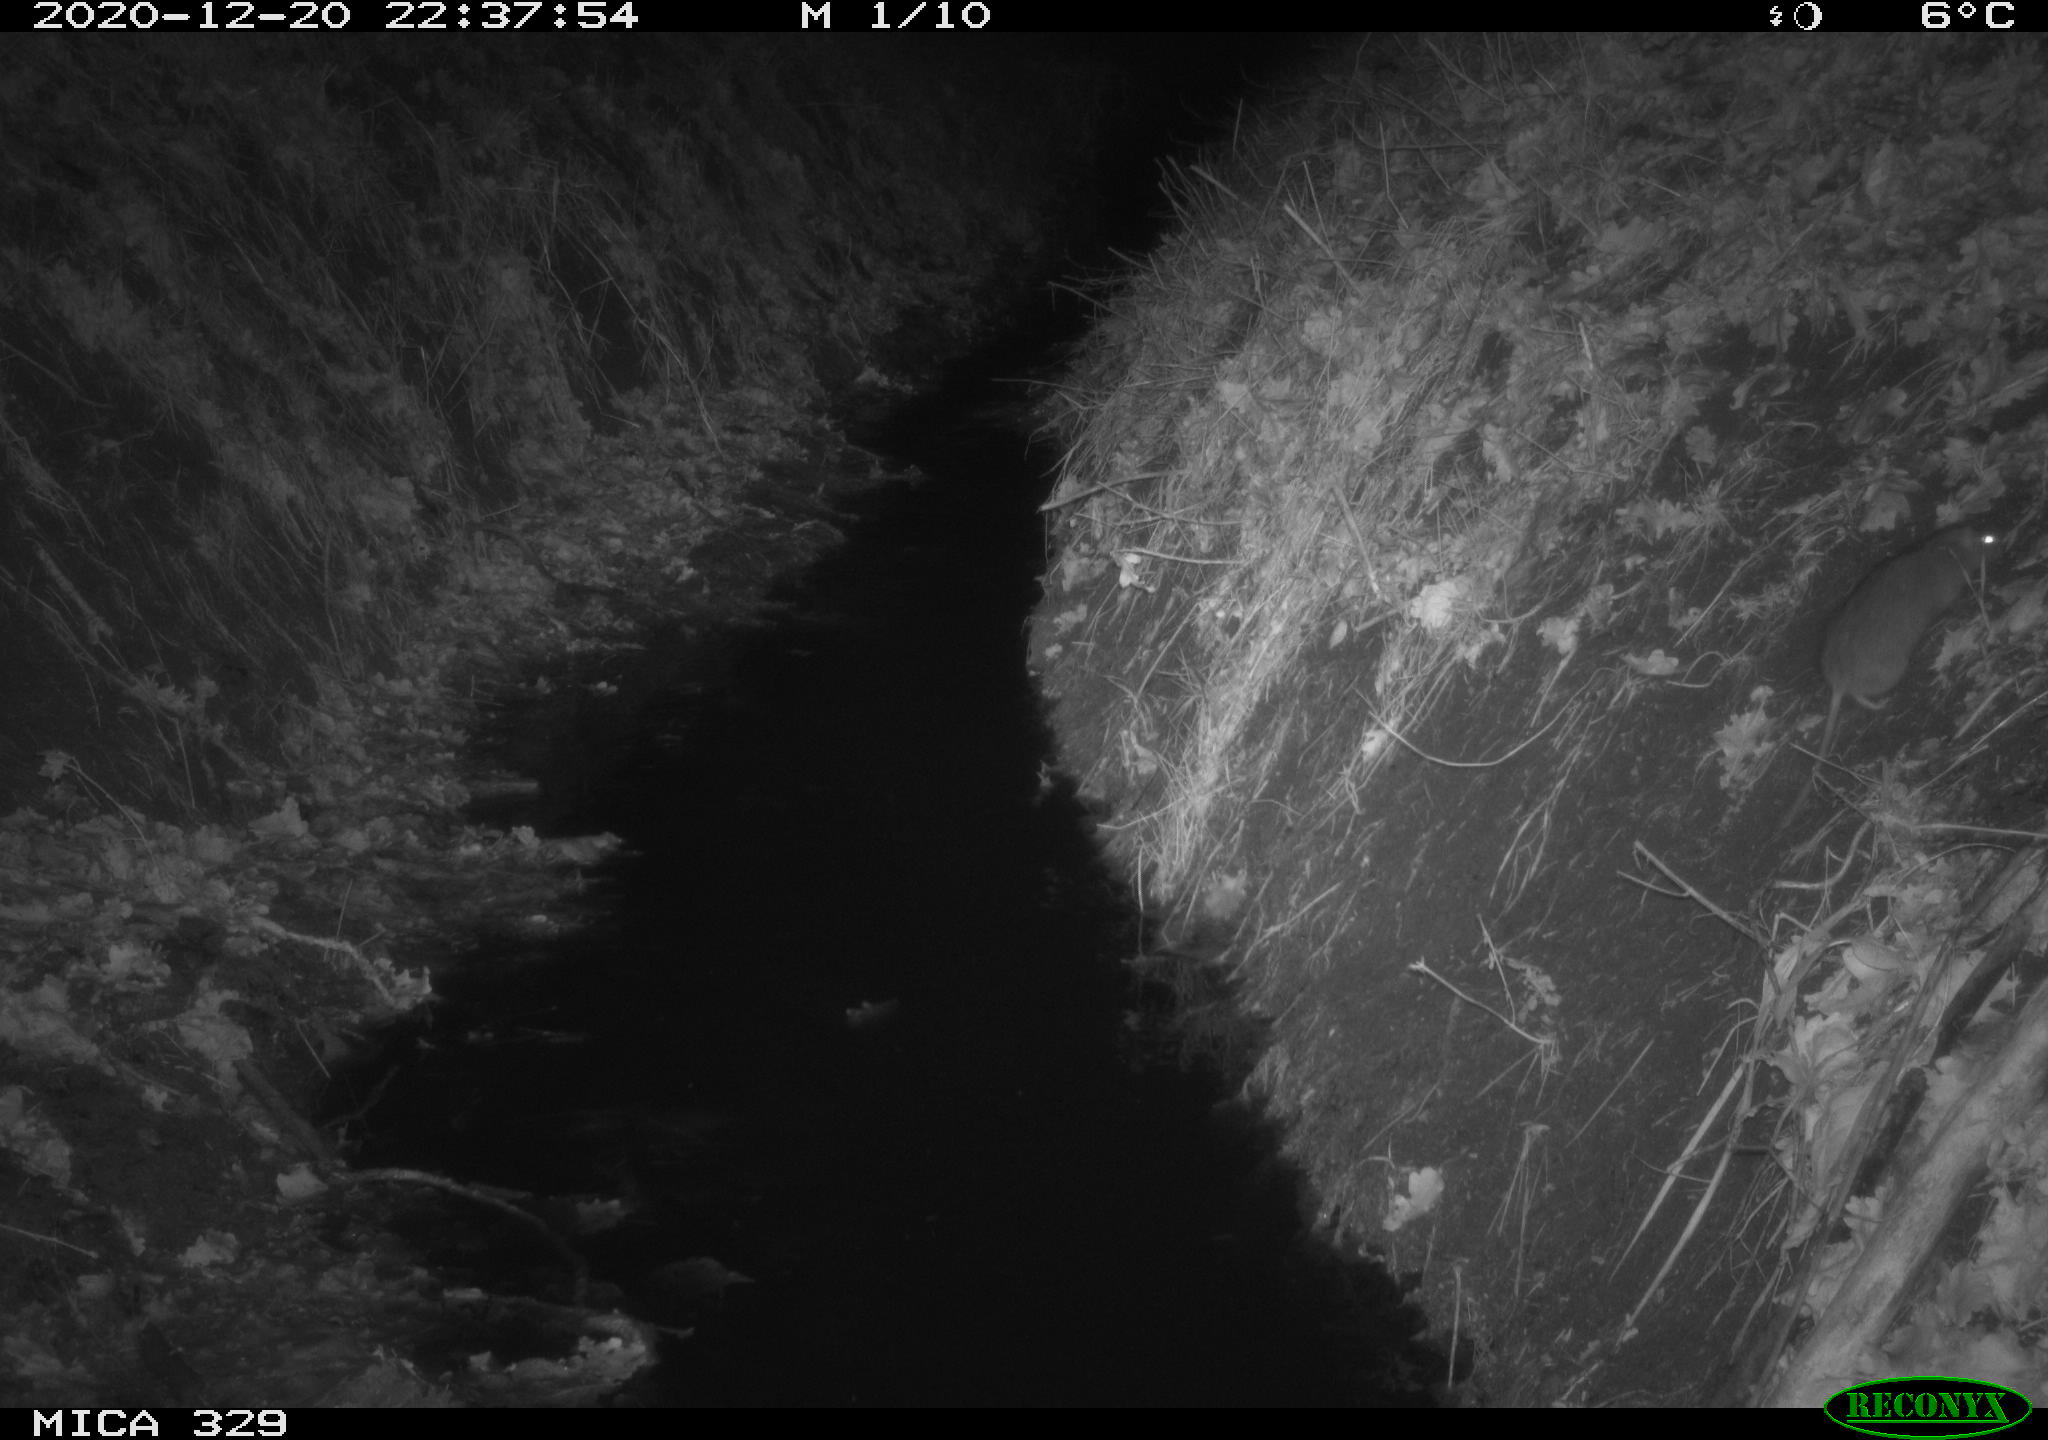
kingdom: Animalia
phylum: Chordata
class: Mammalia
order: Rodentia
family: Muridae
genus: Rattus
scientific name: Rattus norvegicus
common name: Brown rat
